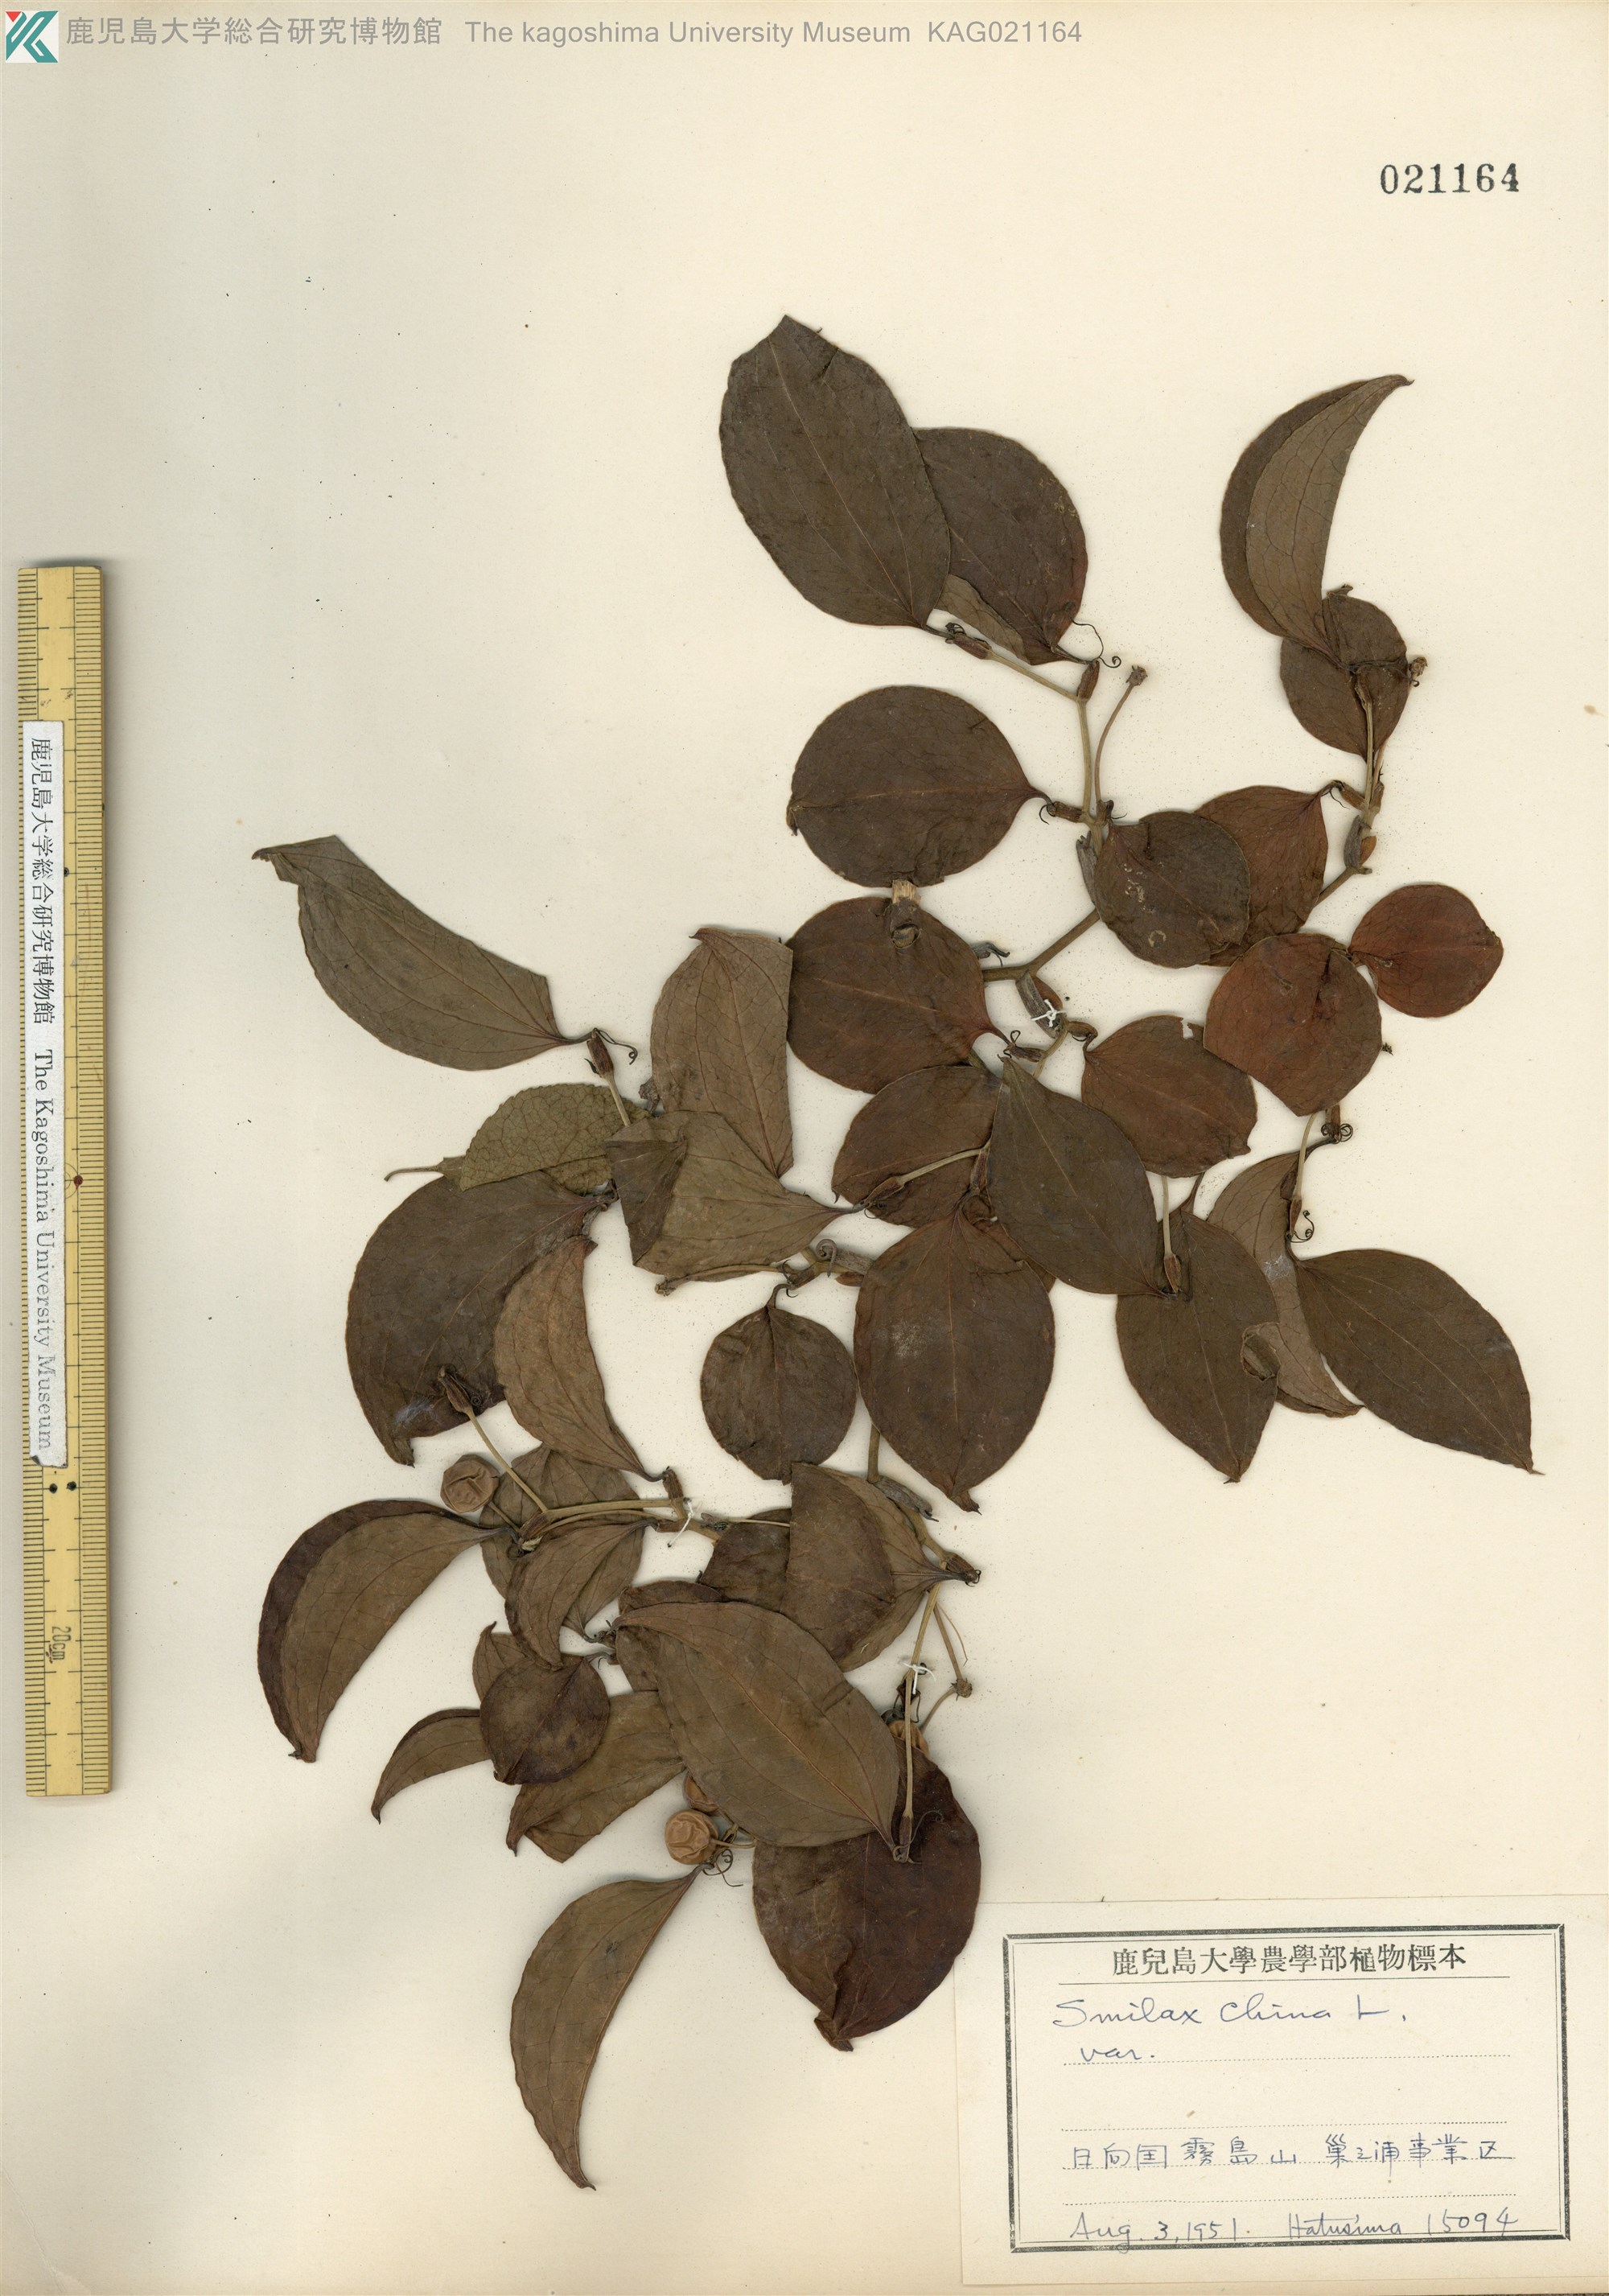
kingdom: Plantae
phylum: Tracheophyta
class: Liliopsida
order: Liliales
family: Smilacaceae
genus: Smilax
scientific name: Smilax china
